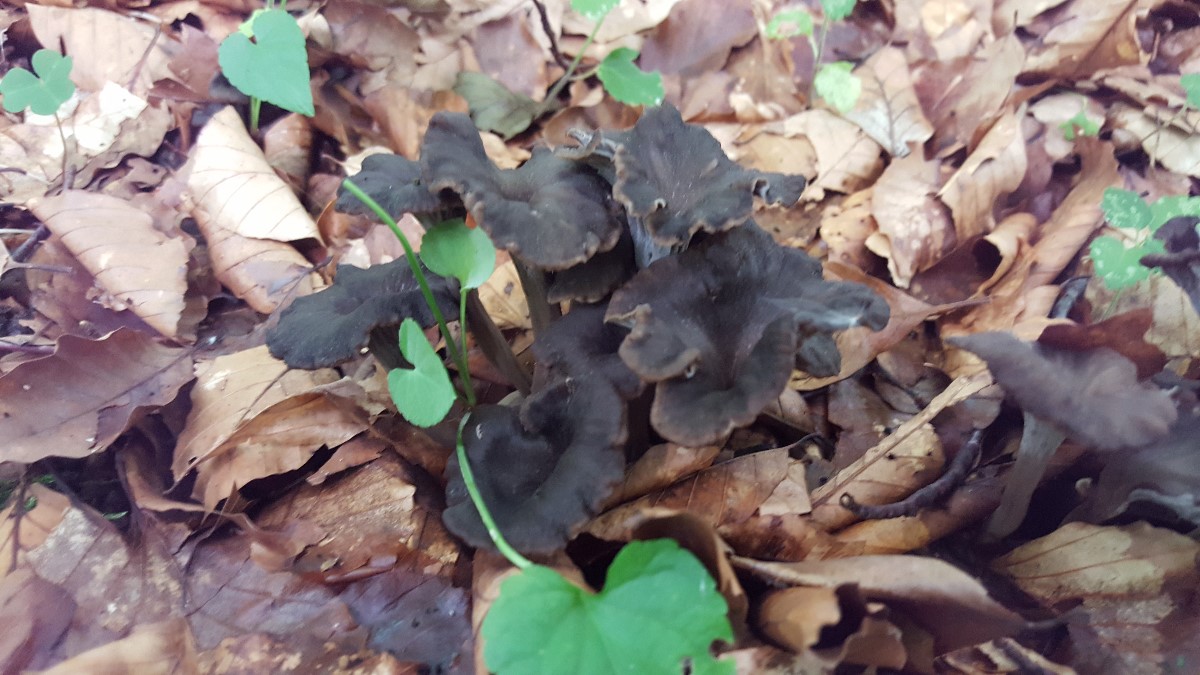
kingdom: Fungi
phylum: Basidiomycota
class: Agaricomycetes
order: Cantharellales
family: Hydnaceae
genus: Cantharellus
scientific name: Cantharellus cinereus
